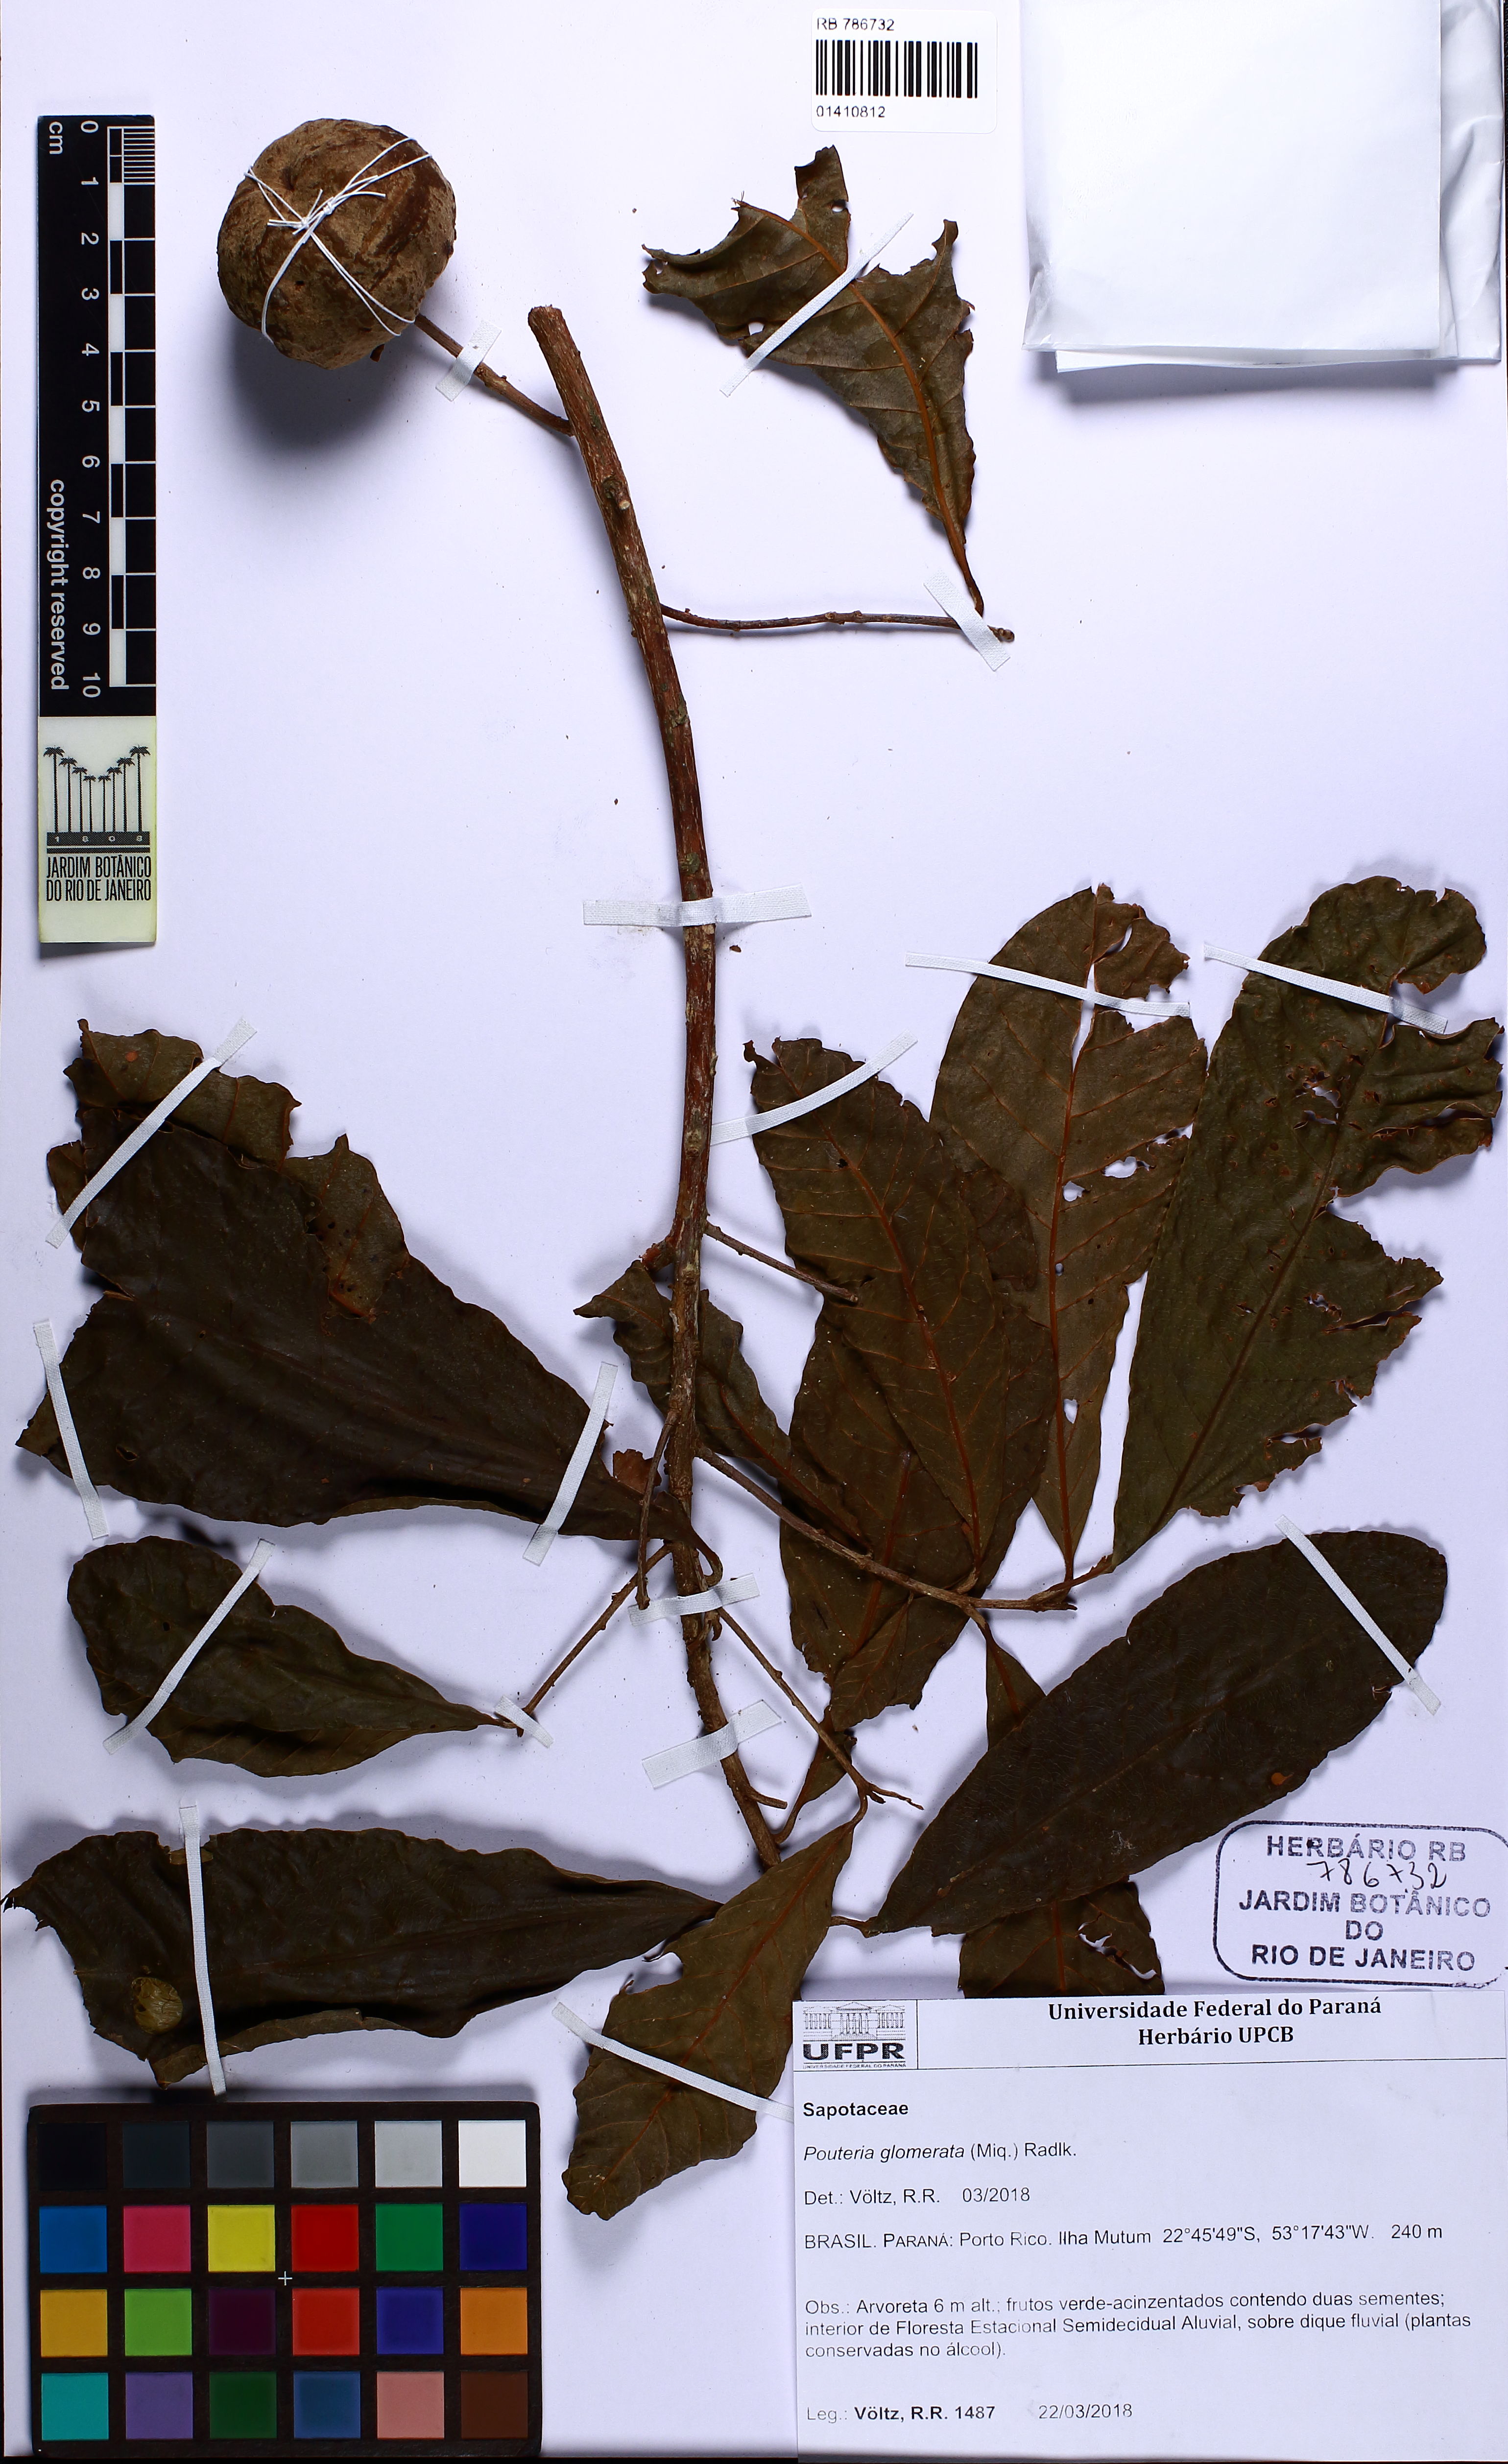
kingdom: Plantae
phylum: Tracheophyta
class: Magnoliopsida
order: Ericales
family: Sapotaceae
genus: Pouteria
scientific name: Pouteria glomerata
